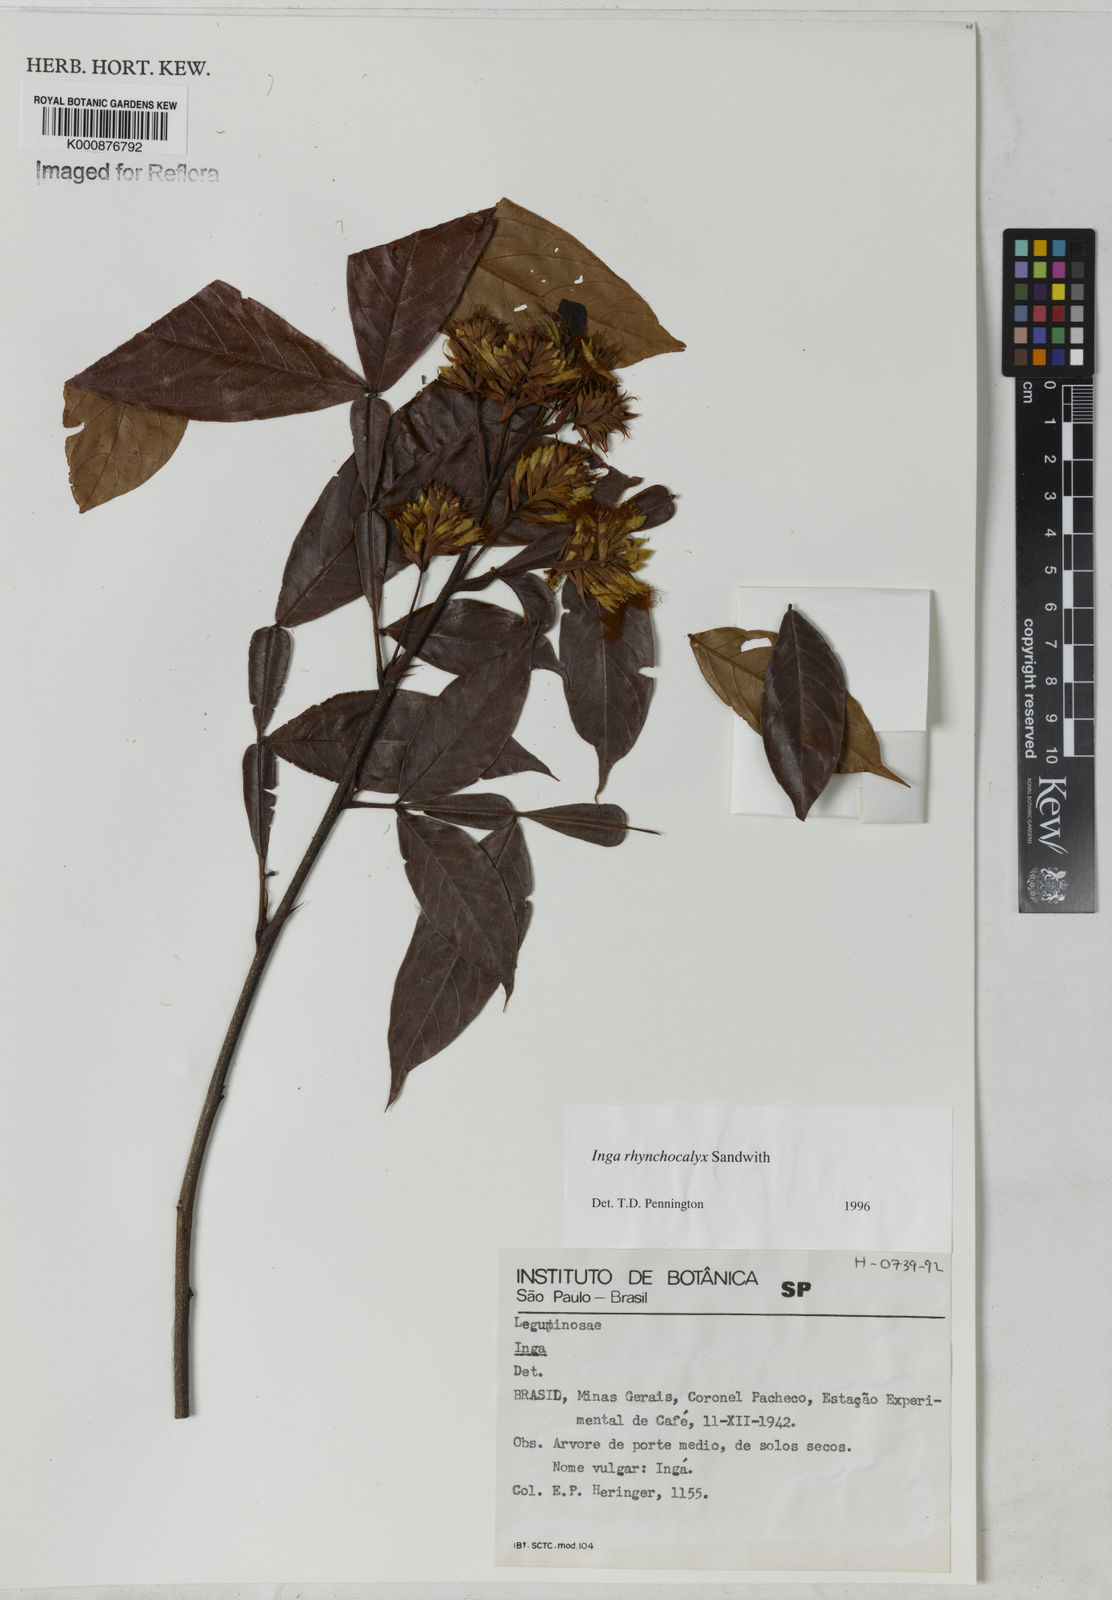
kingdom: Plantae
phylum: Tracheophyta
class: Magnoliopsida
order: Fabales
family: Fabaceae
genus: Inga
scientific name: Inga rhynchocalyx
